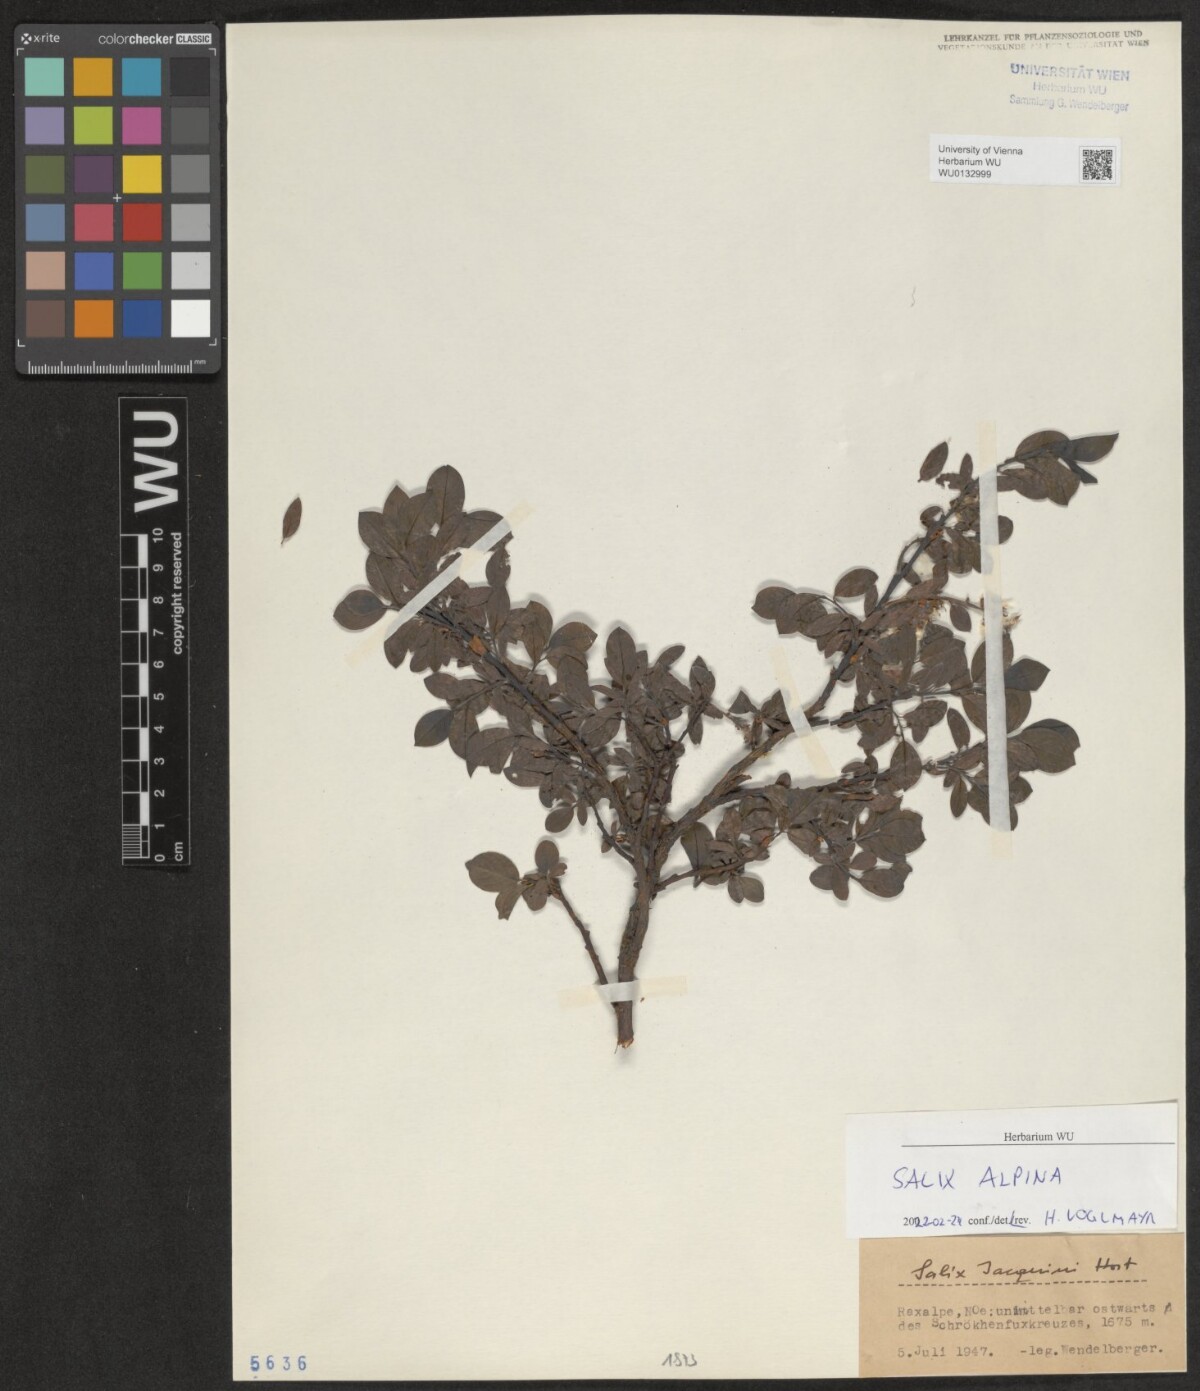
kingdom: Plantae
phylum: Tracheophyta
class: Magnoliopsida
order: Malpighiales
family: Salicaceae
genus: Salix
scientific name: Salix alpina
